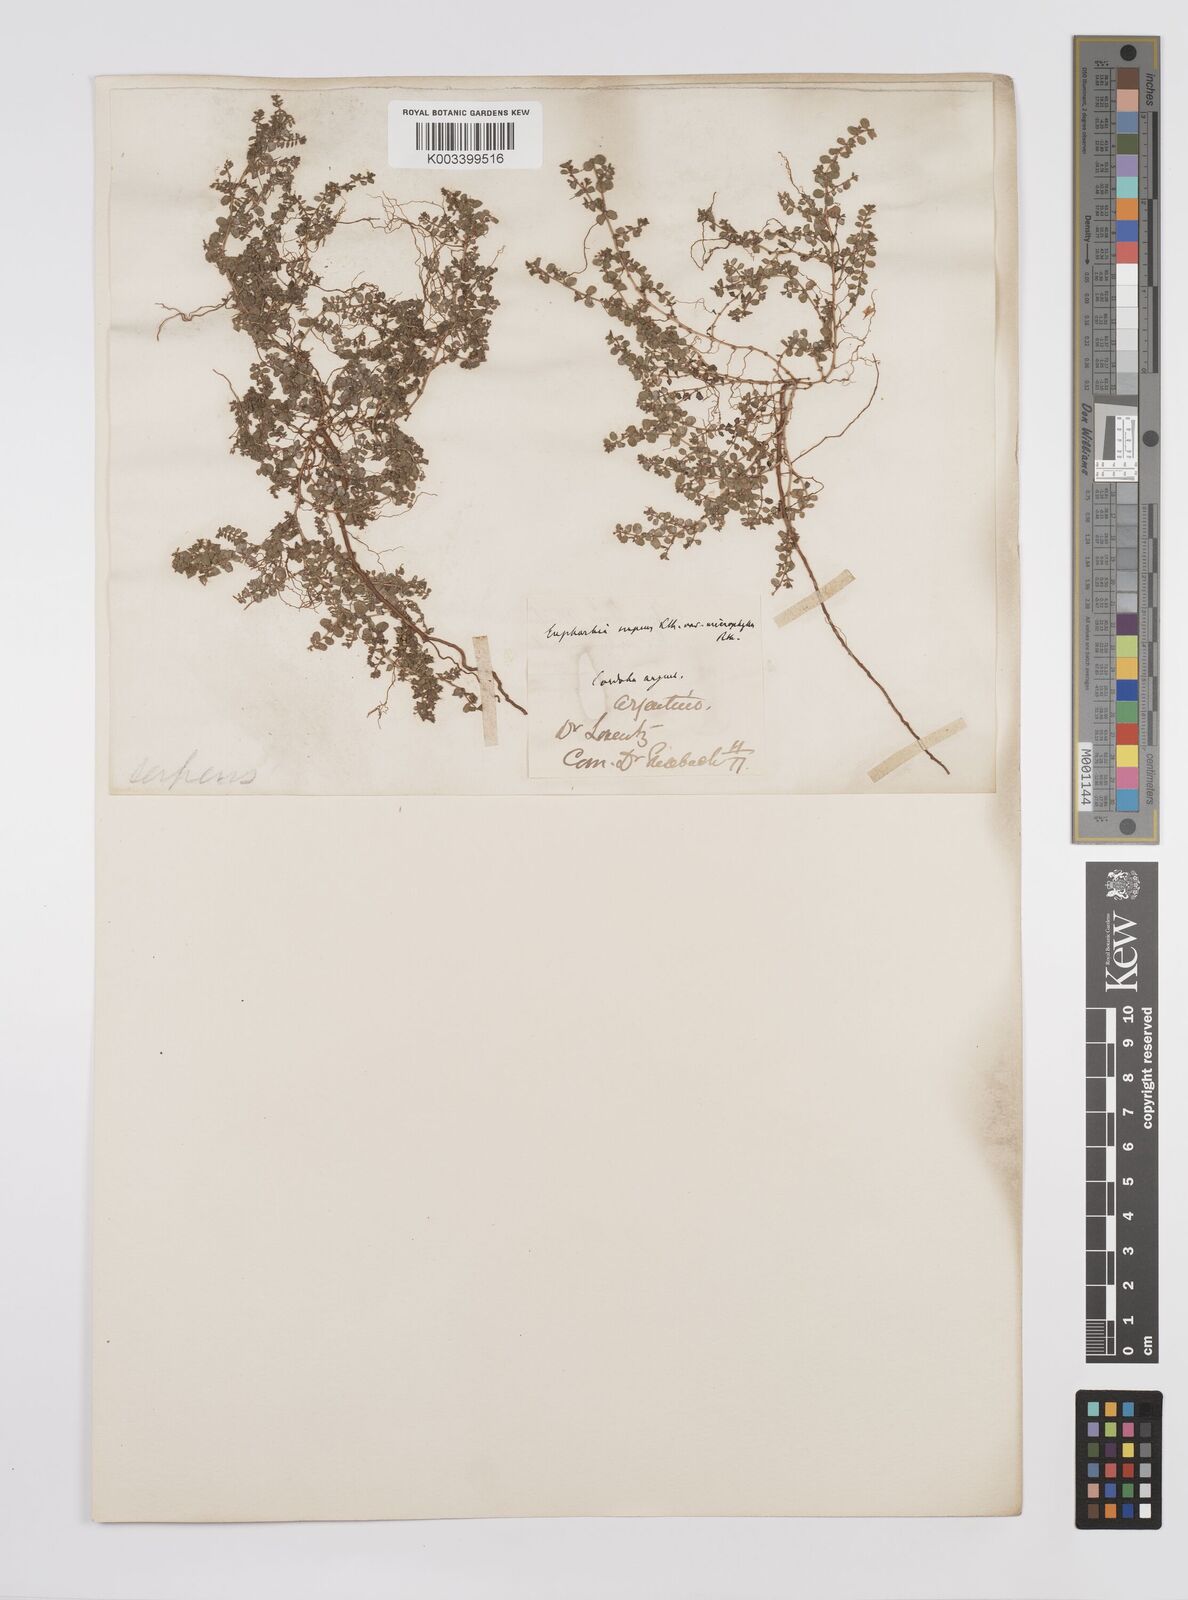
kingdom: Plantae
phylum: Tracheophyta
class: Magnoliopsida
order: Malpighiales
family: Euphorbiaceae
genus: Euphorbia
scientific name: Euphorbia
